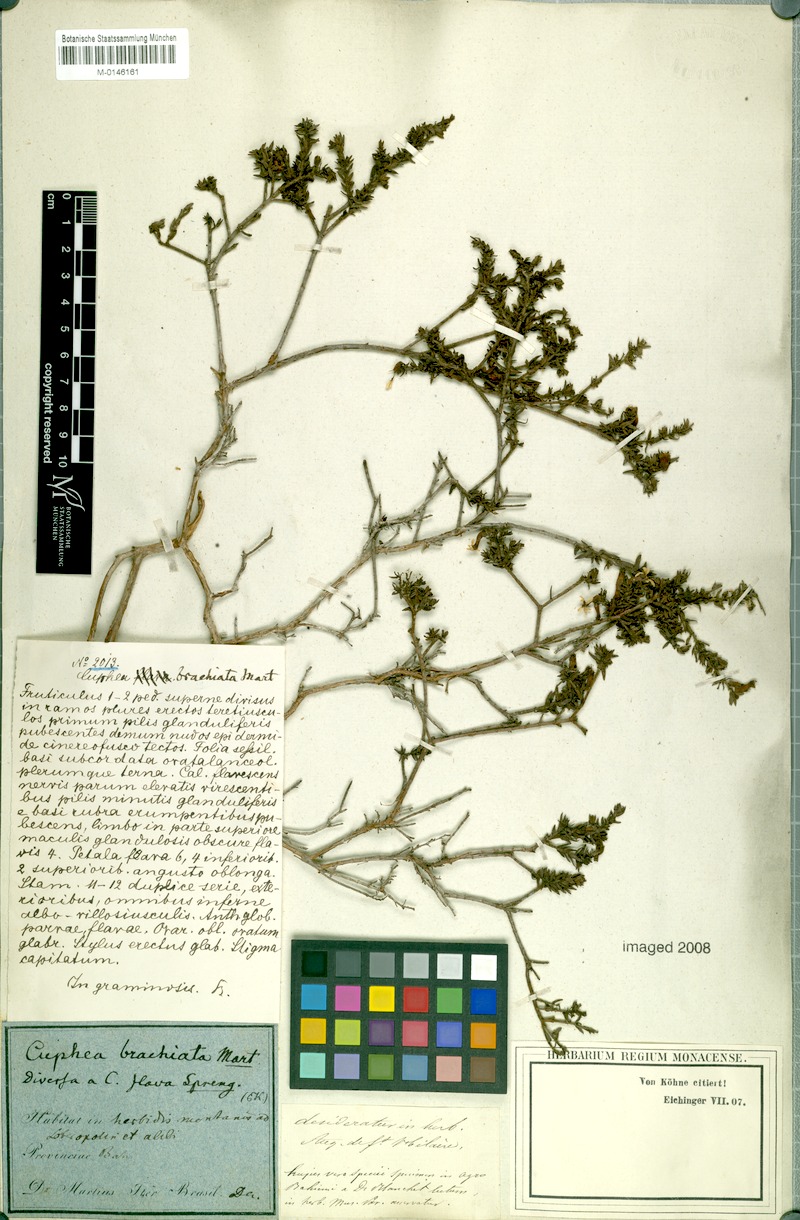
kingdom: Plantae
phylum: Tracheophyta
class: Magnoliopsida
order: Myrtales
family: Lythraceae
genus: Cuphea
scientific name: Cuphea brachiata
